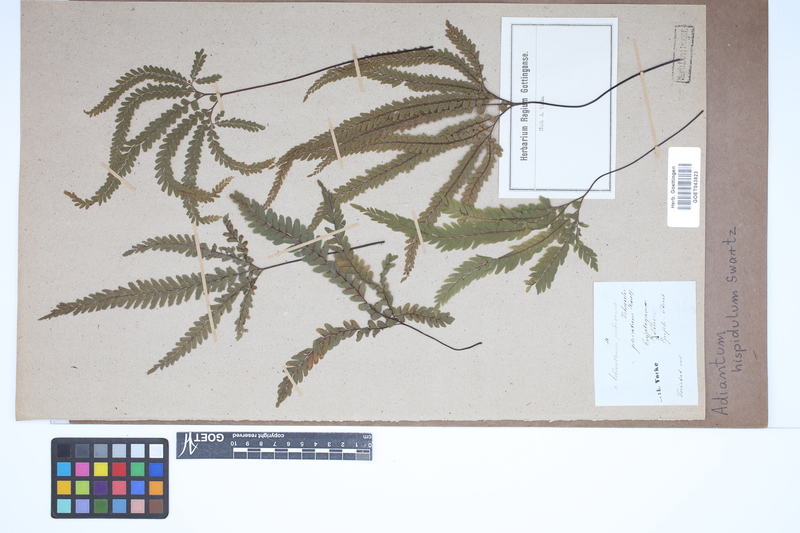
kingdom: Plantae
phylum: Tracheophyta
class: Polypodiopsida
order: Polypodiales
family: Pteridaceae
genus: Adiantum
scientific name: Adiantum hispidulum
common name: Rough maidenhair
